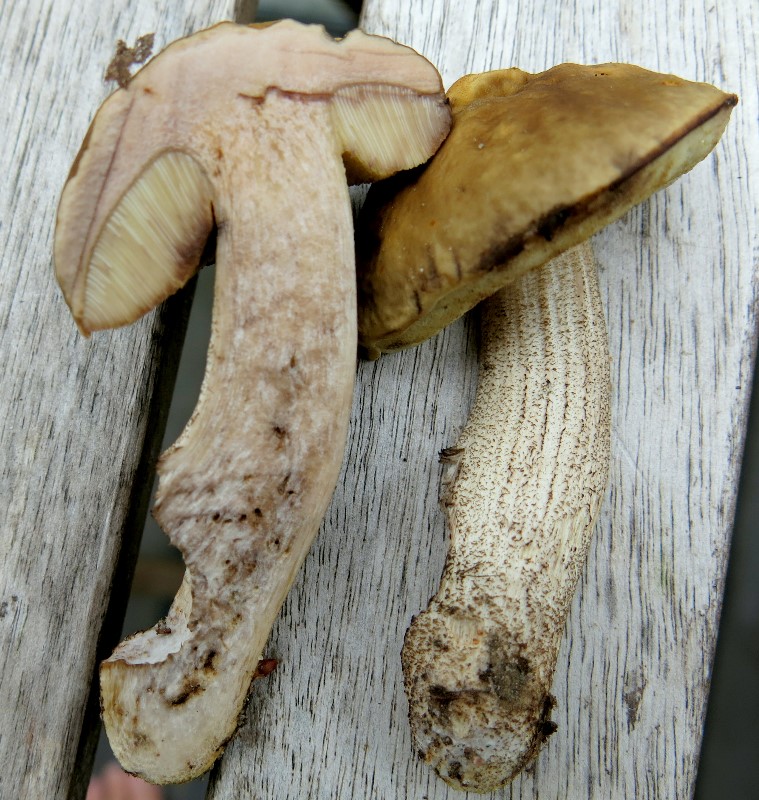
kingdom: Fungi
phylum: Basidiomycota
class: Agaricomycetes
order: Boletales
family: Boletaceae
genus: Leccinellum
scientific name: Leccinellum pseudoscabrum
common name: avnbøg-skælrørhat
